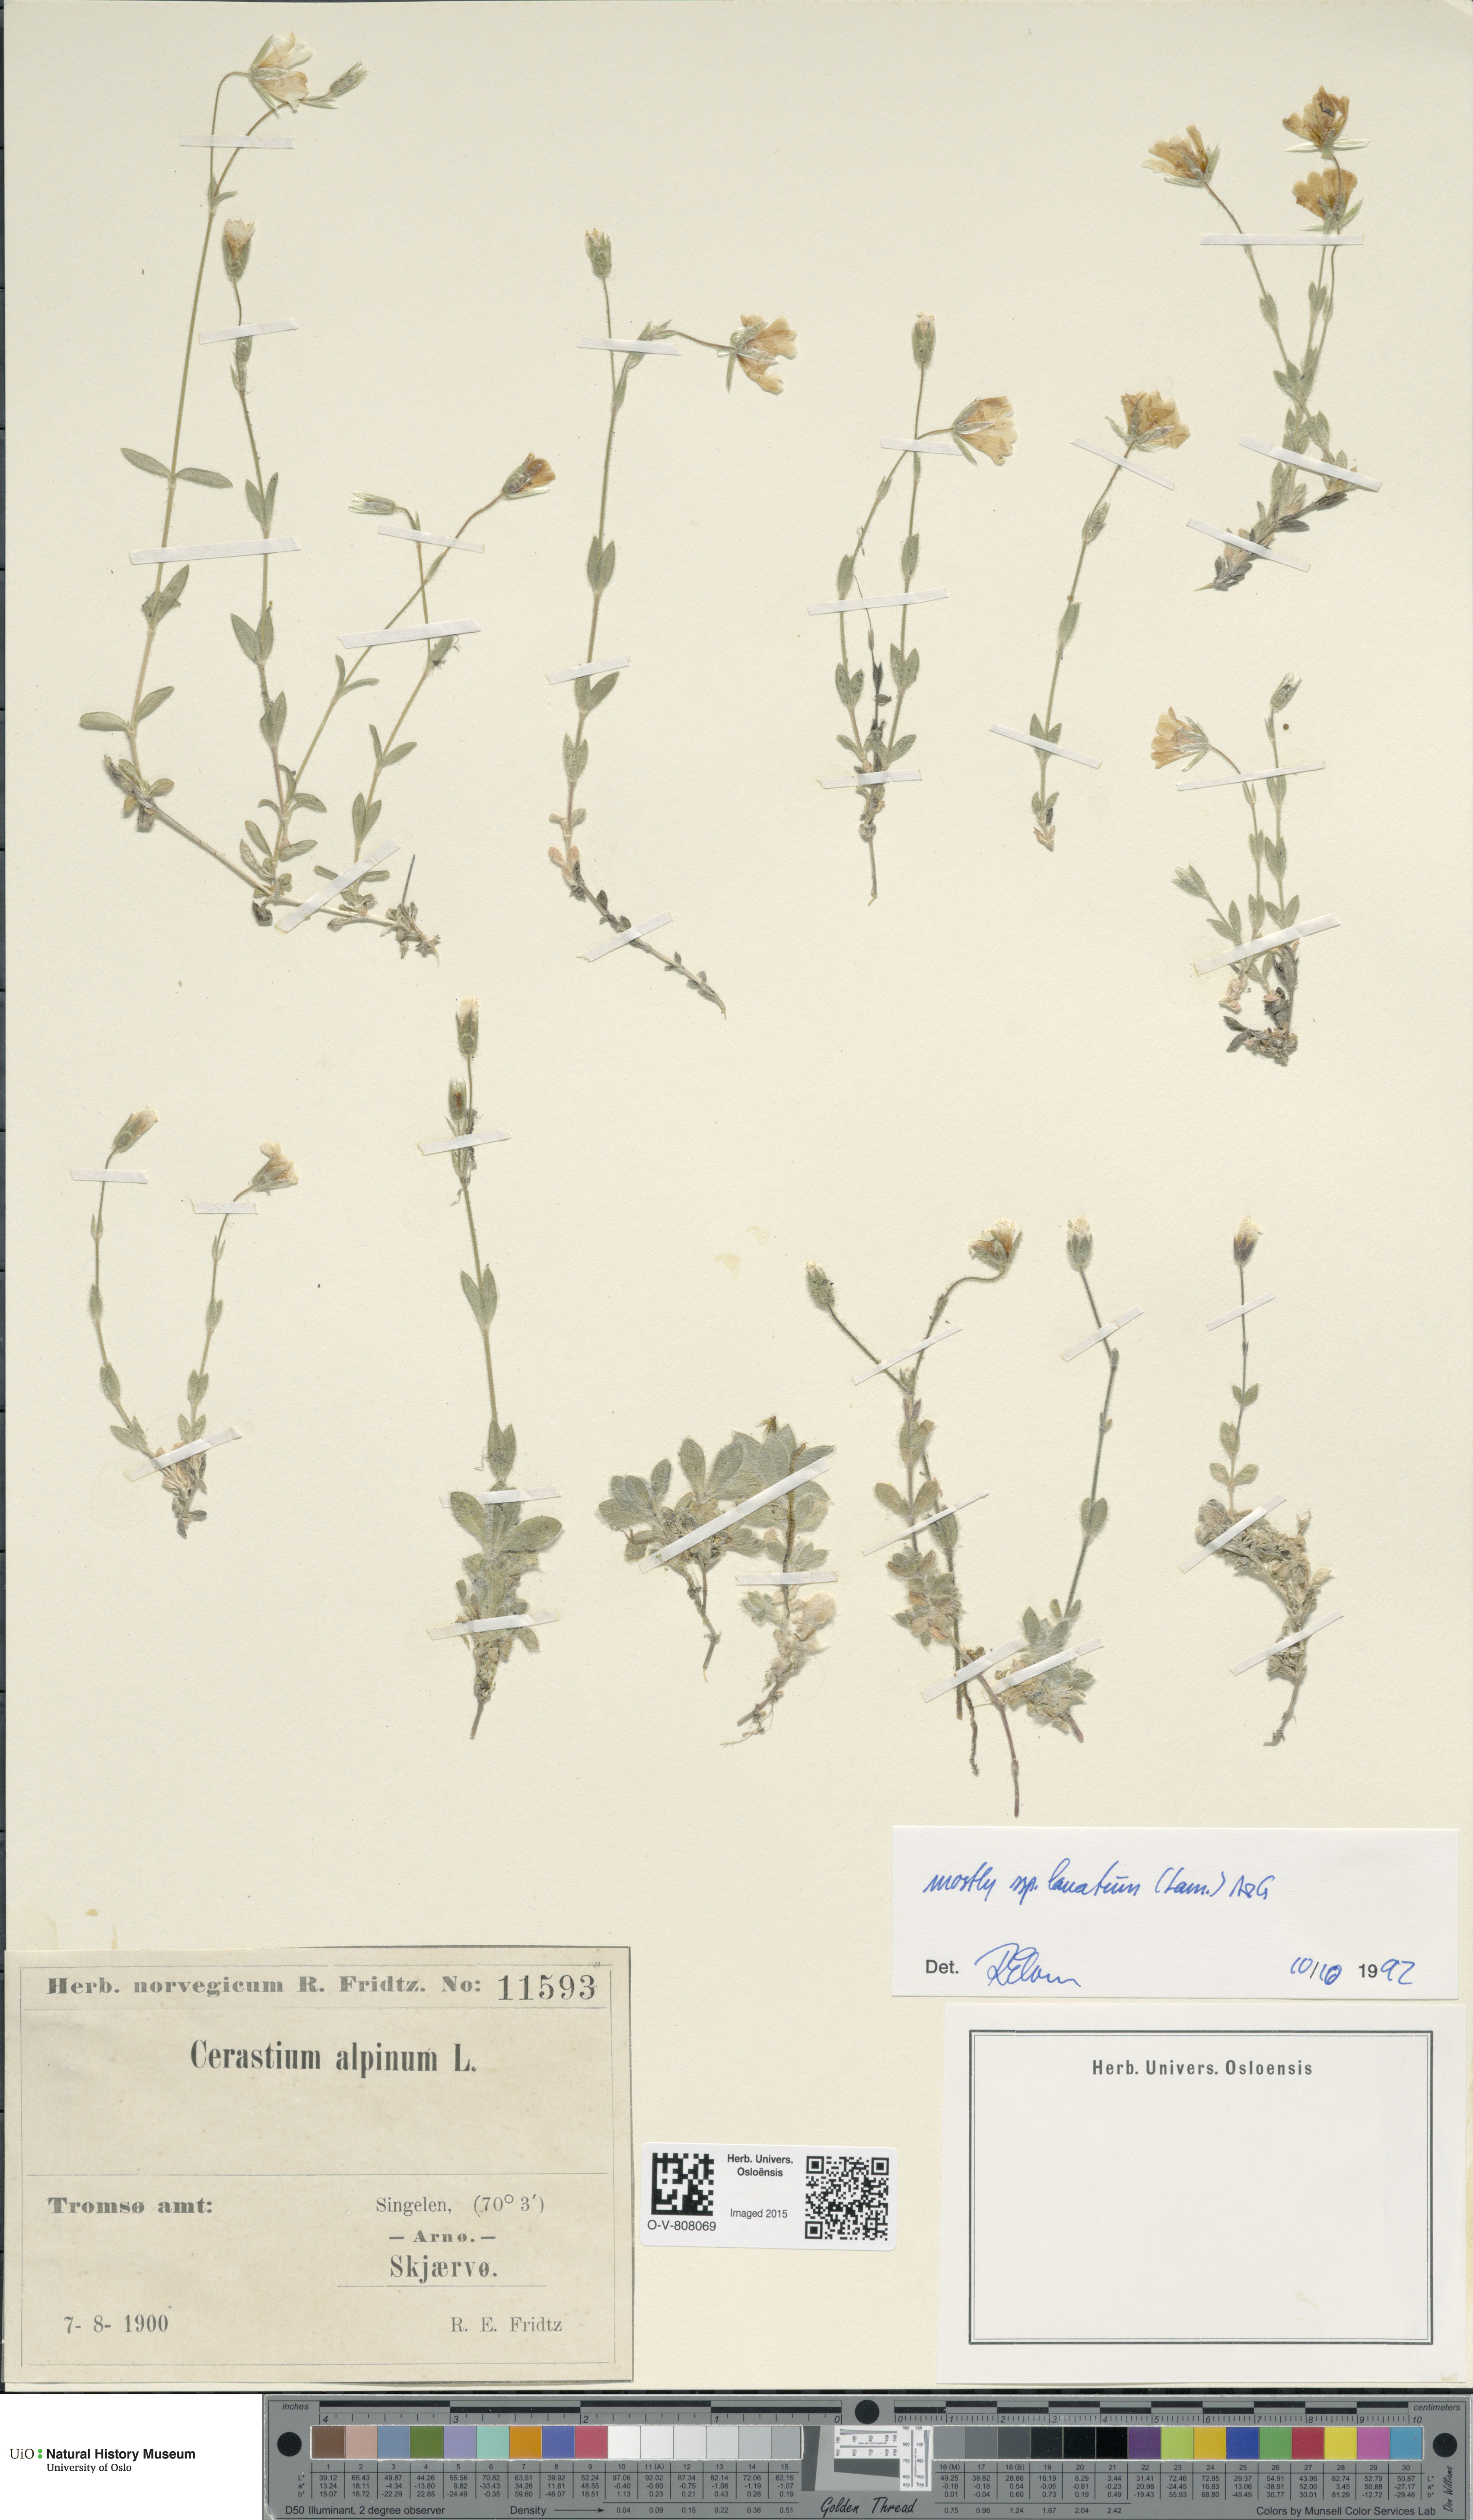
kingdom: Plantae
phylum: Tracheophyta
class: Magnoliopsida
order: Caryophyllales
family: Caryophyllaceae
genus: Cerastium
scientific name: Cerastium alpinum
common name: Alpine mouse-ear
